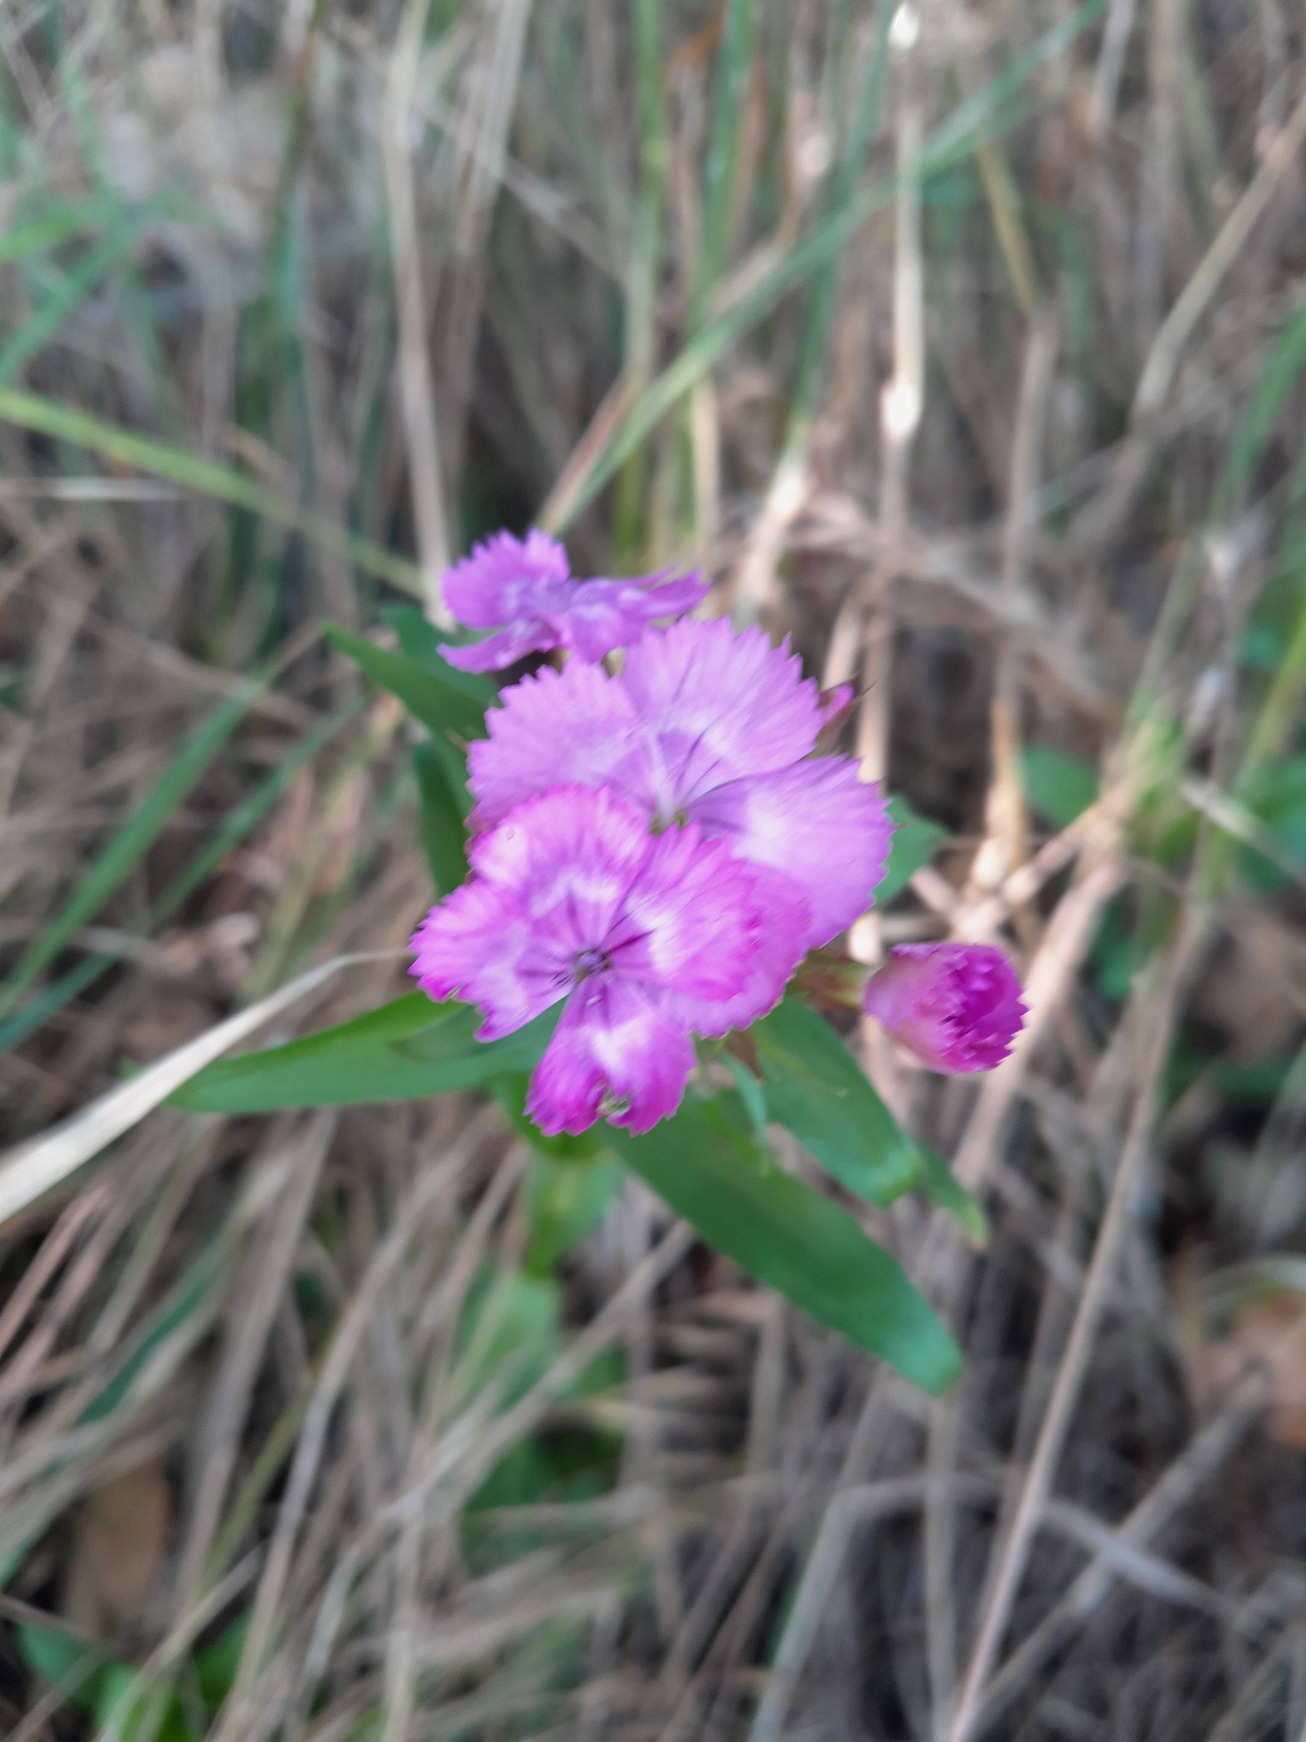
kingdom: Plantae
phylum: Tracheophyta
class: Magnoliopsida
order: Caryophyllales
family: Caryophyllaceae
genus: Dianthus
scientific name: Dianthus barbatus
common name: Studenter-nellike
